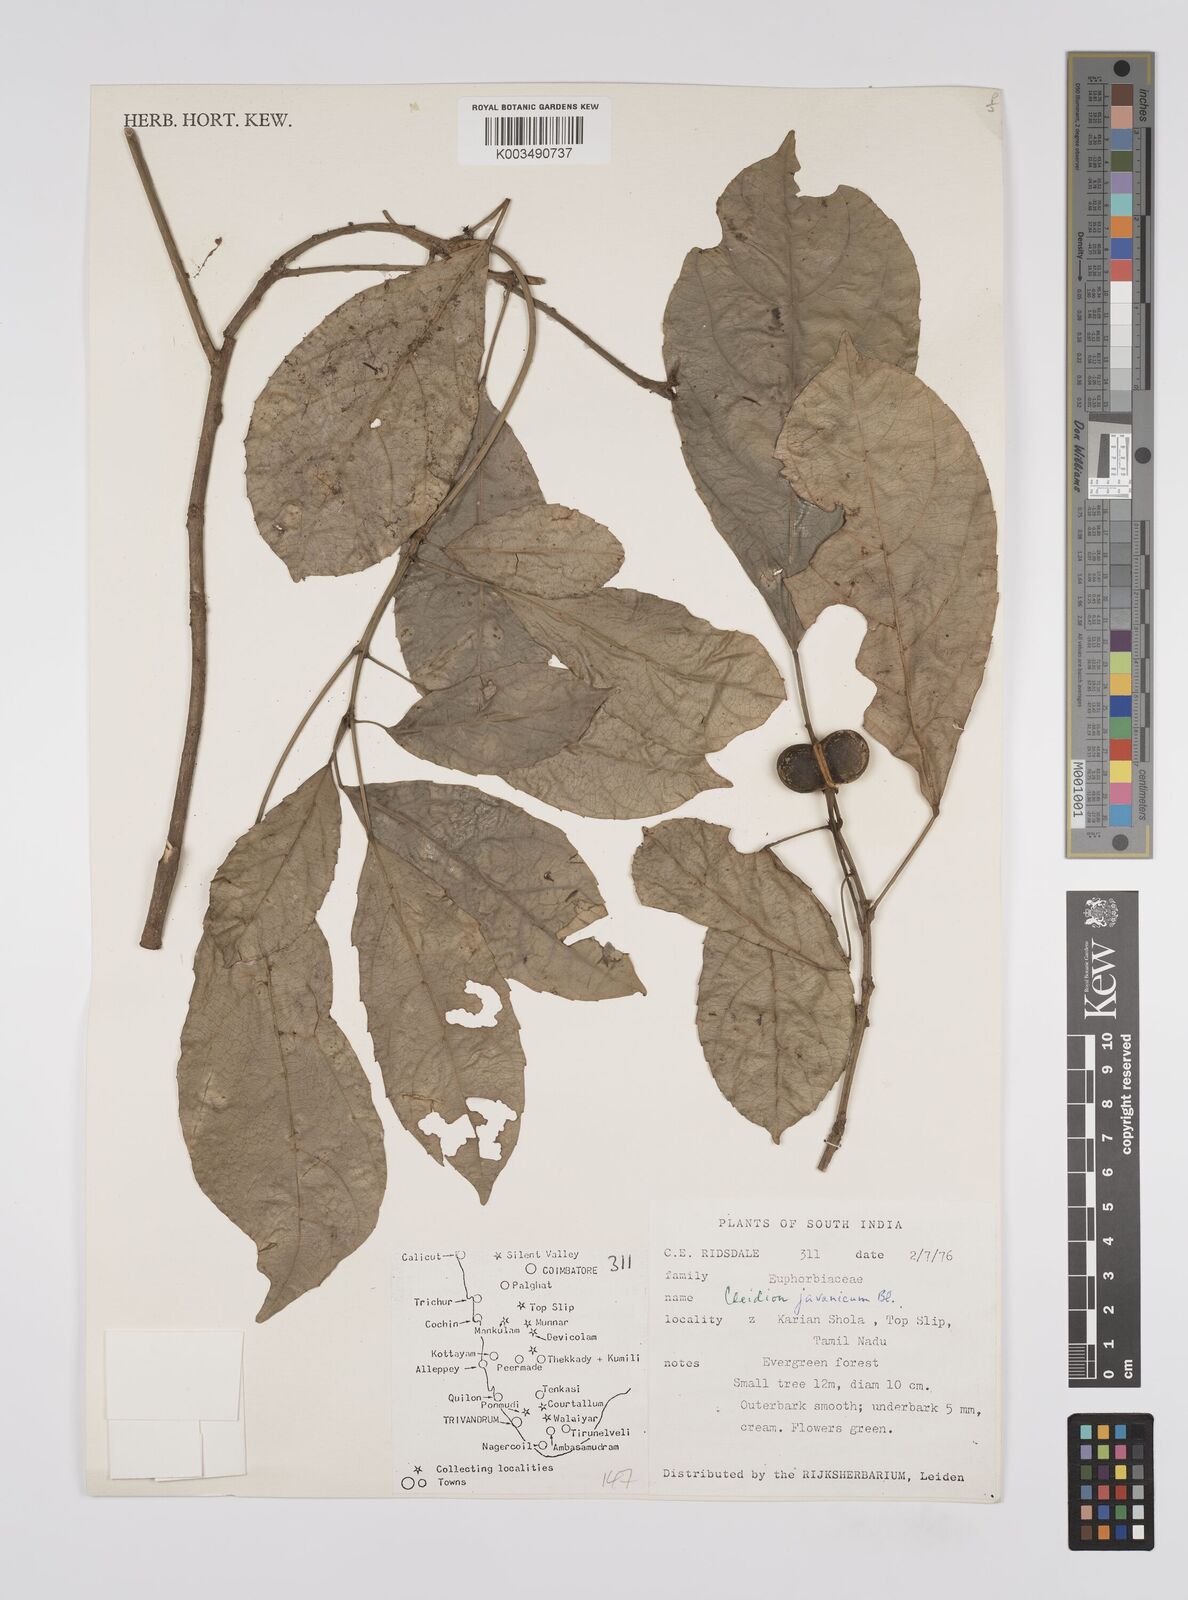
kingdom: Plantae
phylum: Tracheophyta
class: Magnoliopsida
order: Malpighiales
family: Euphorbiaceae
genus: Acalypha
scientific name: Acalypha spiciflora
